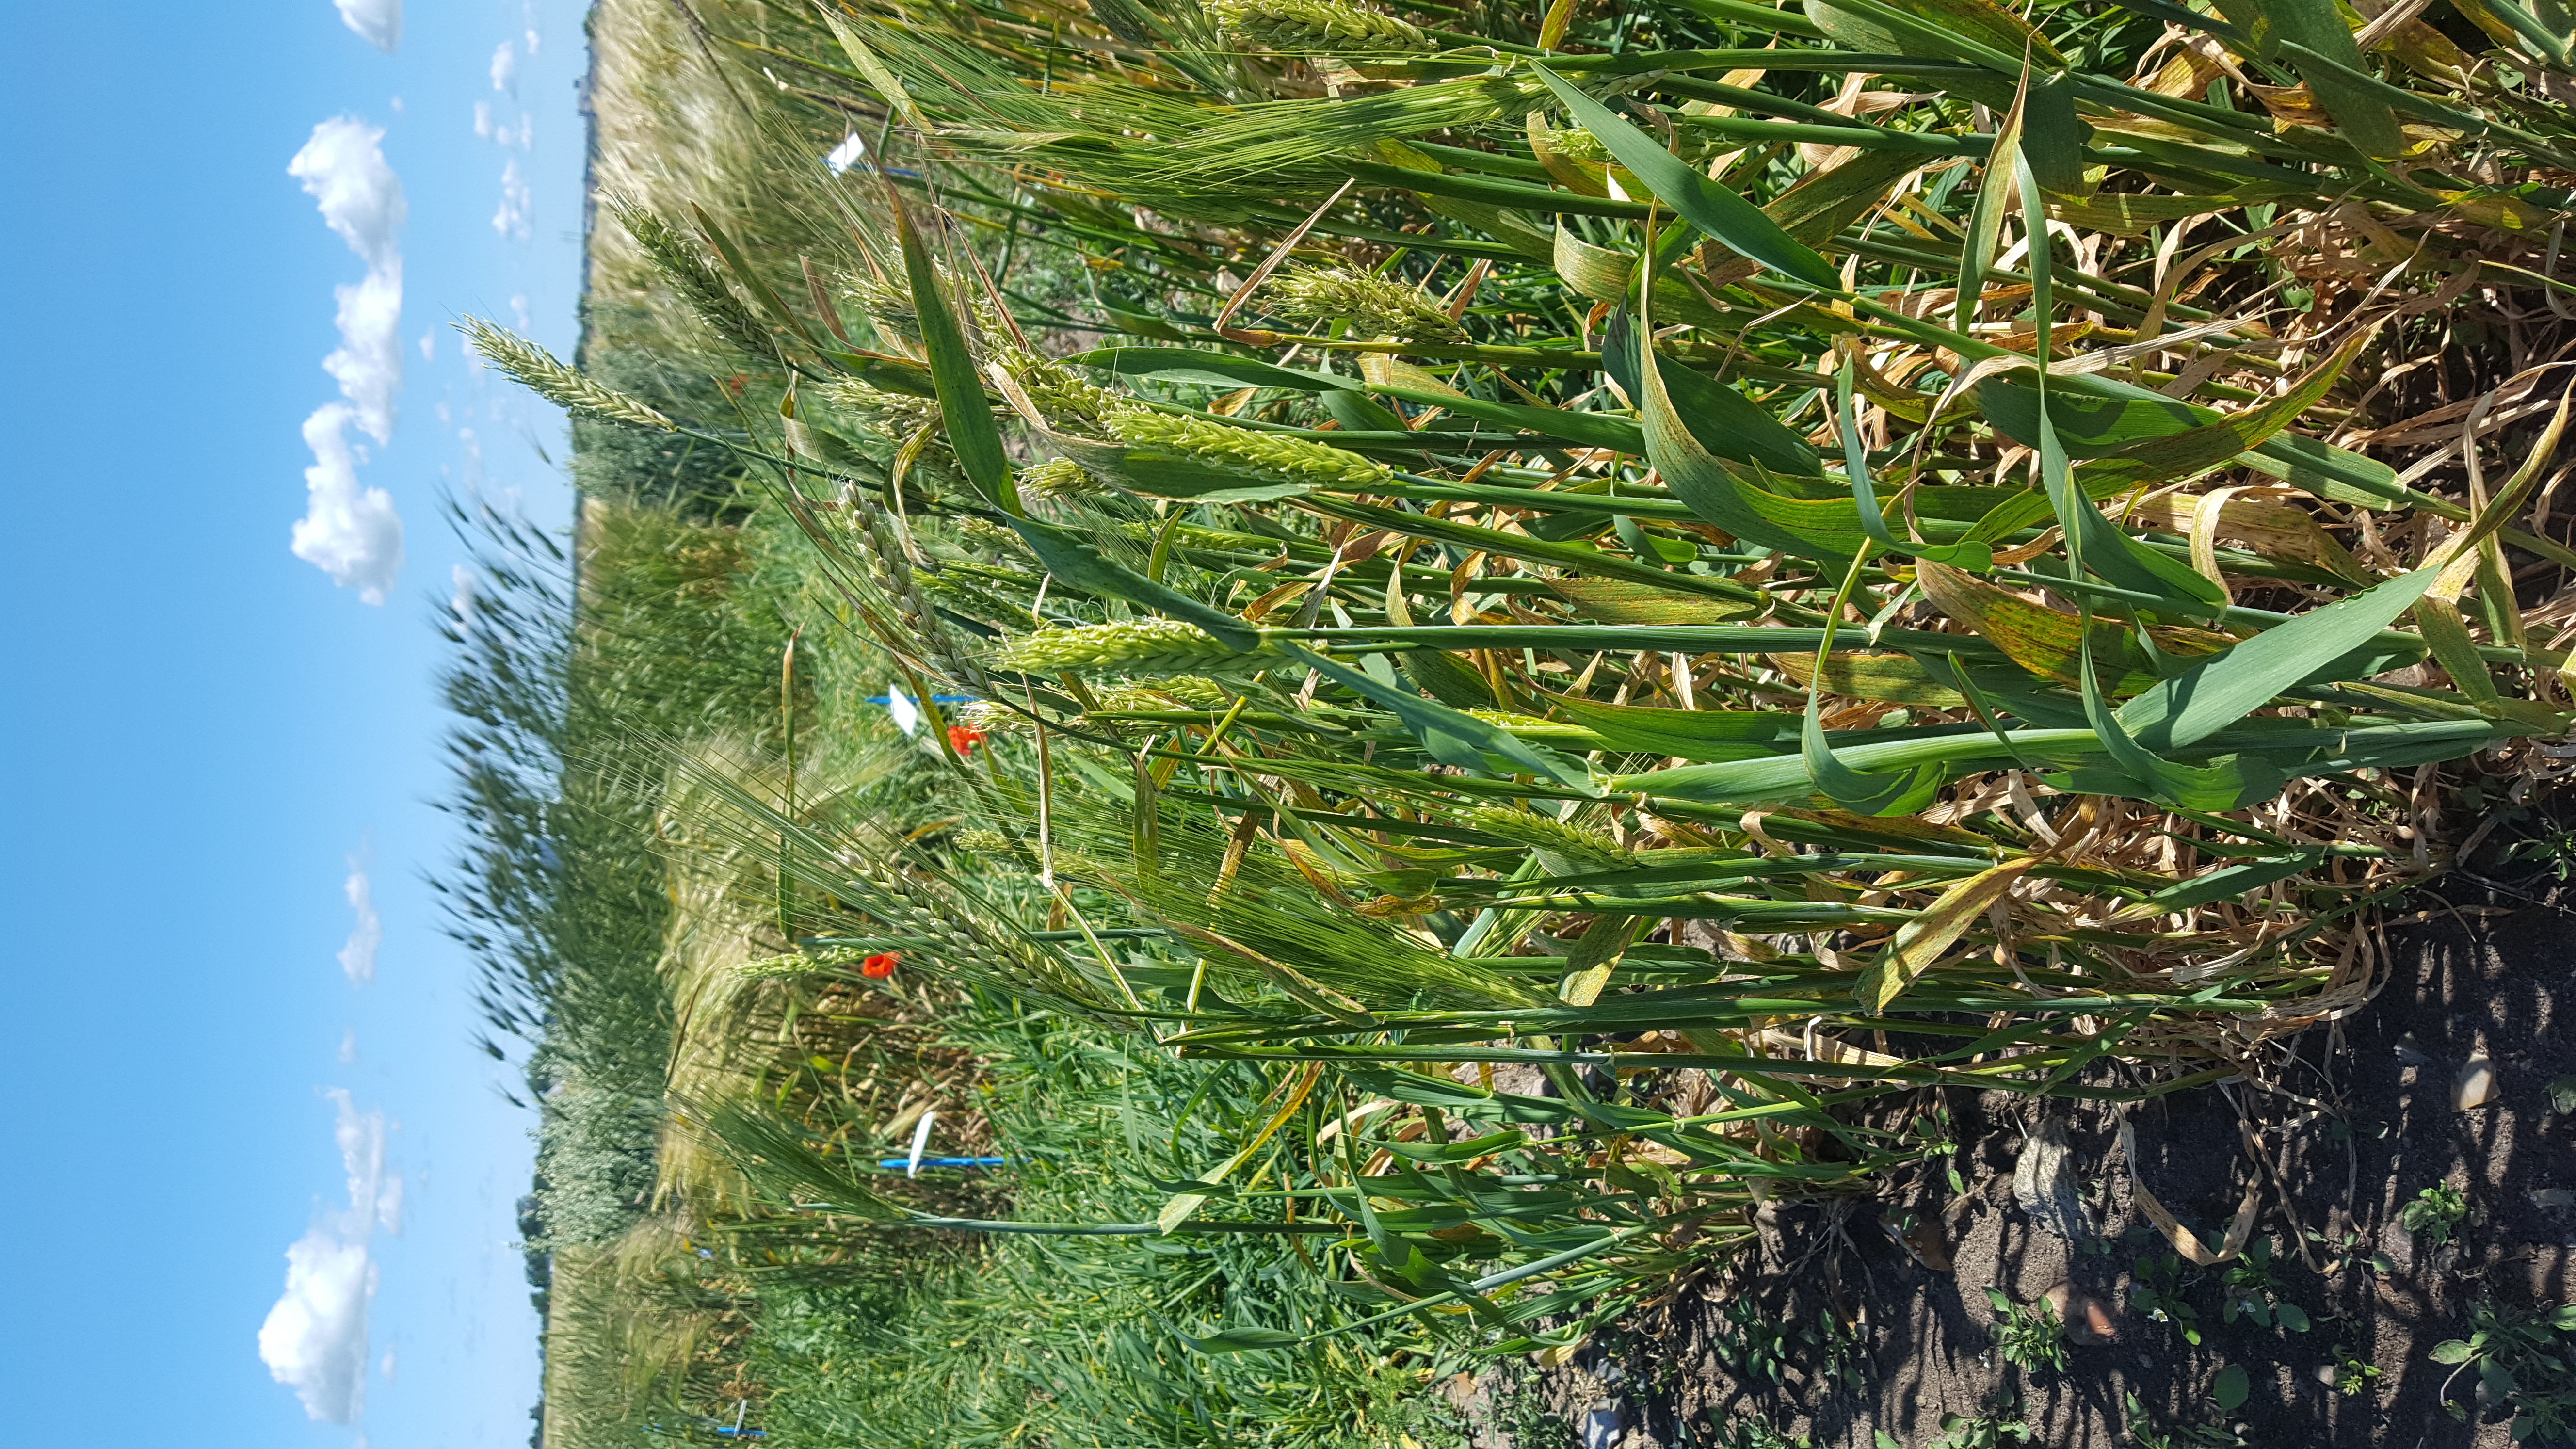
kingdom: Plantae
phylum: Tracheophyta
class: Liliopsida
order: Poales
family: Poaceae
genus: Hordeum
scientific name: Hordeum vulgare
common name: Common barley
